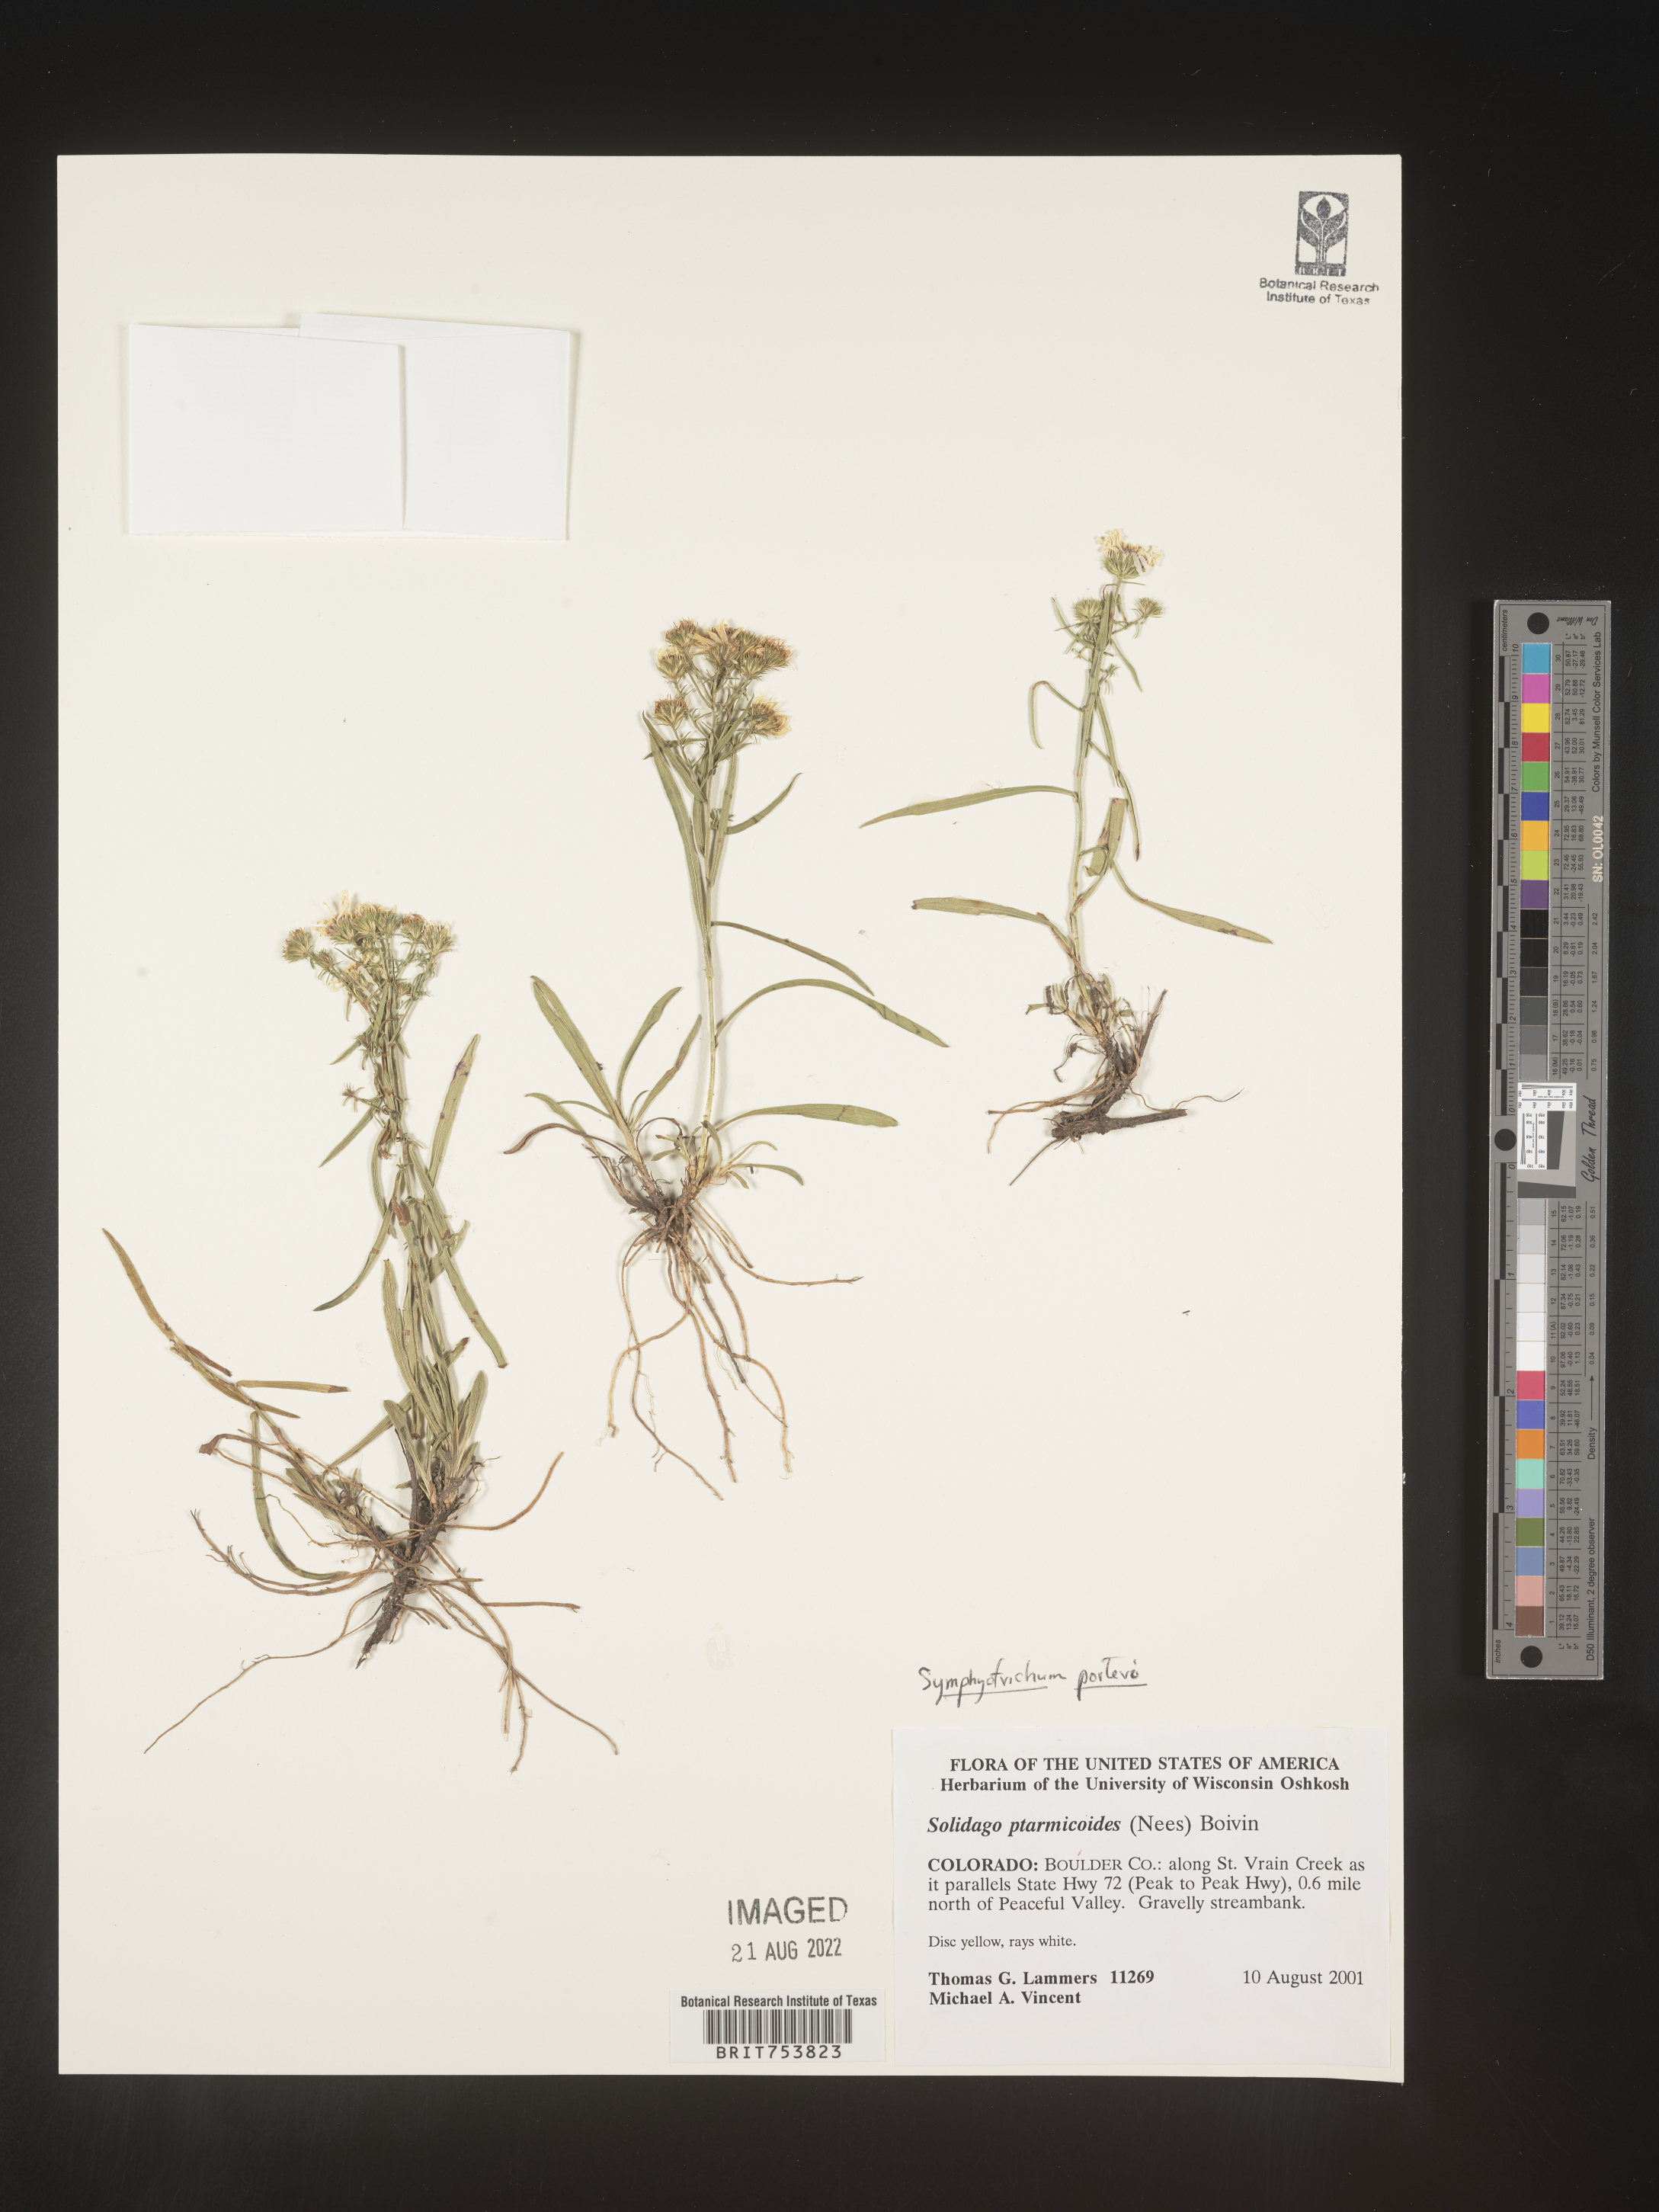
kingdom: Plantae
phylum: Tracheophyta
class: Magnoliopsida
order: Asterales
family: Asteraceae
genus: Symphyotrichum
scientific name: Symphyotrichum porteri
